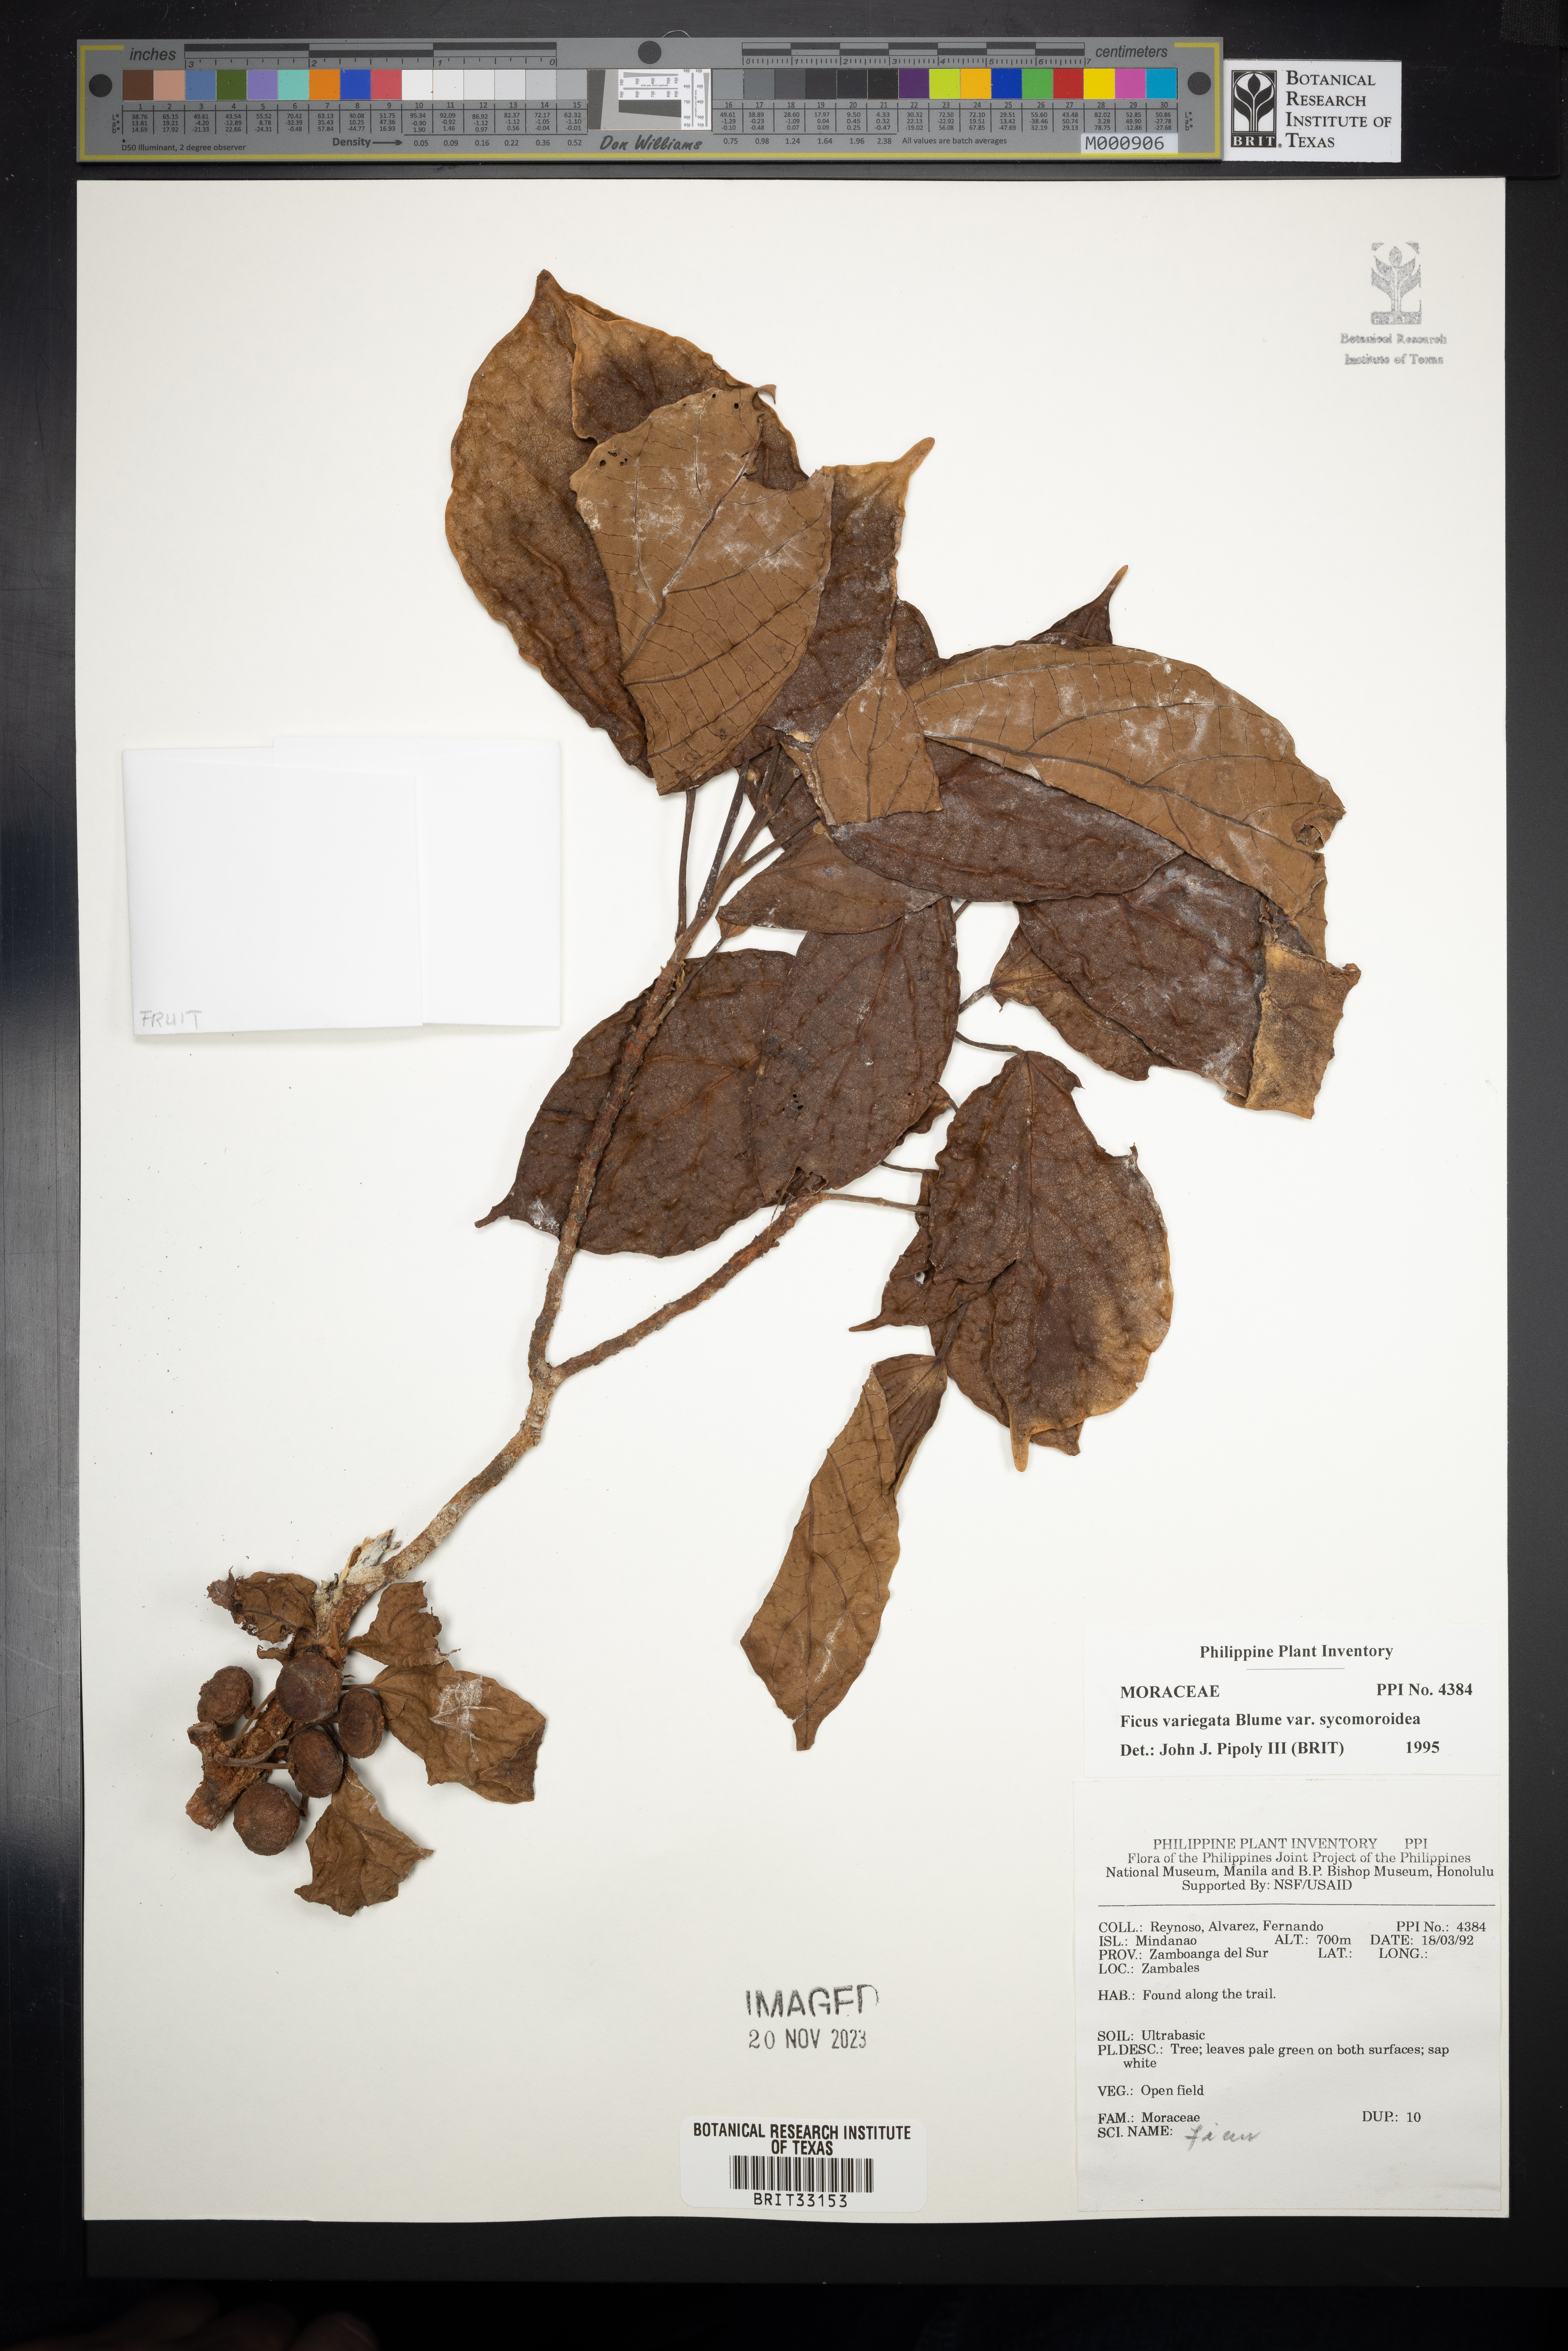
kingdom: Plantae
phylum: Tracheophyta
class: Magnoliopsida
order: Rosales
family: Moraceae
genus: Ficus
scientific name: Ficus variegata
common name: Variegated fig
